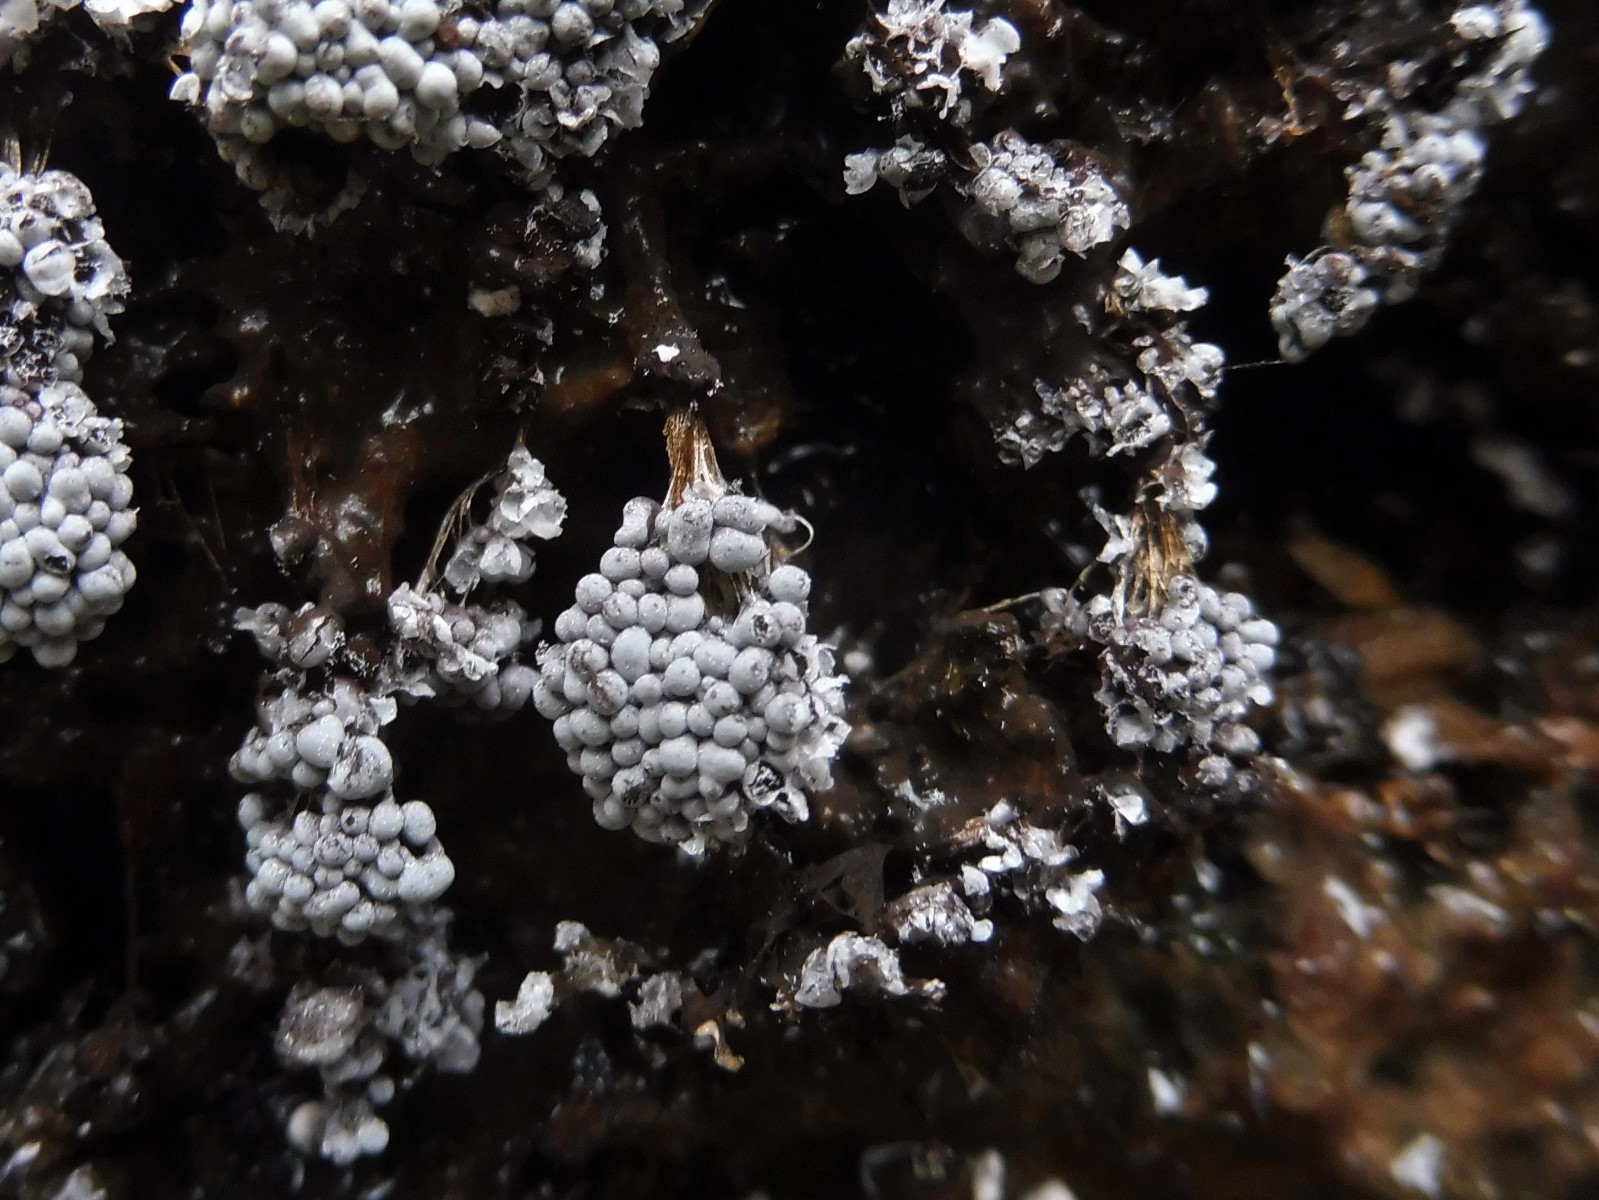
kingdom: Protozoa
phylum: Mycetozoa
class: Myxomycetes
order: Physarales
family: Physaraceae
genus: Badhamia
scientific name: Badhamia utricularis
